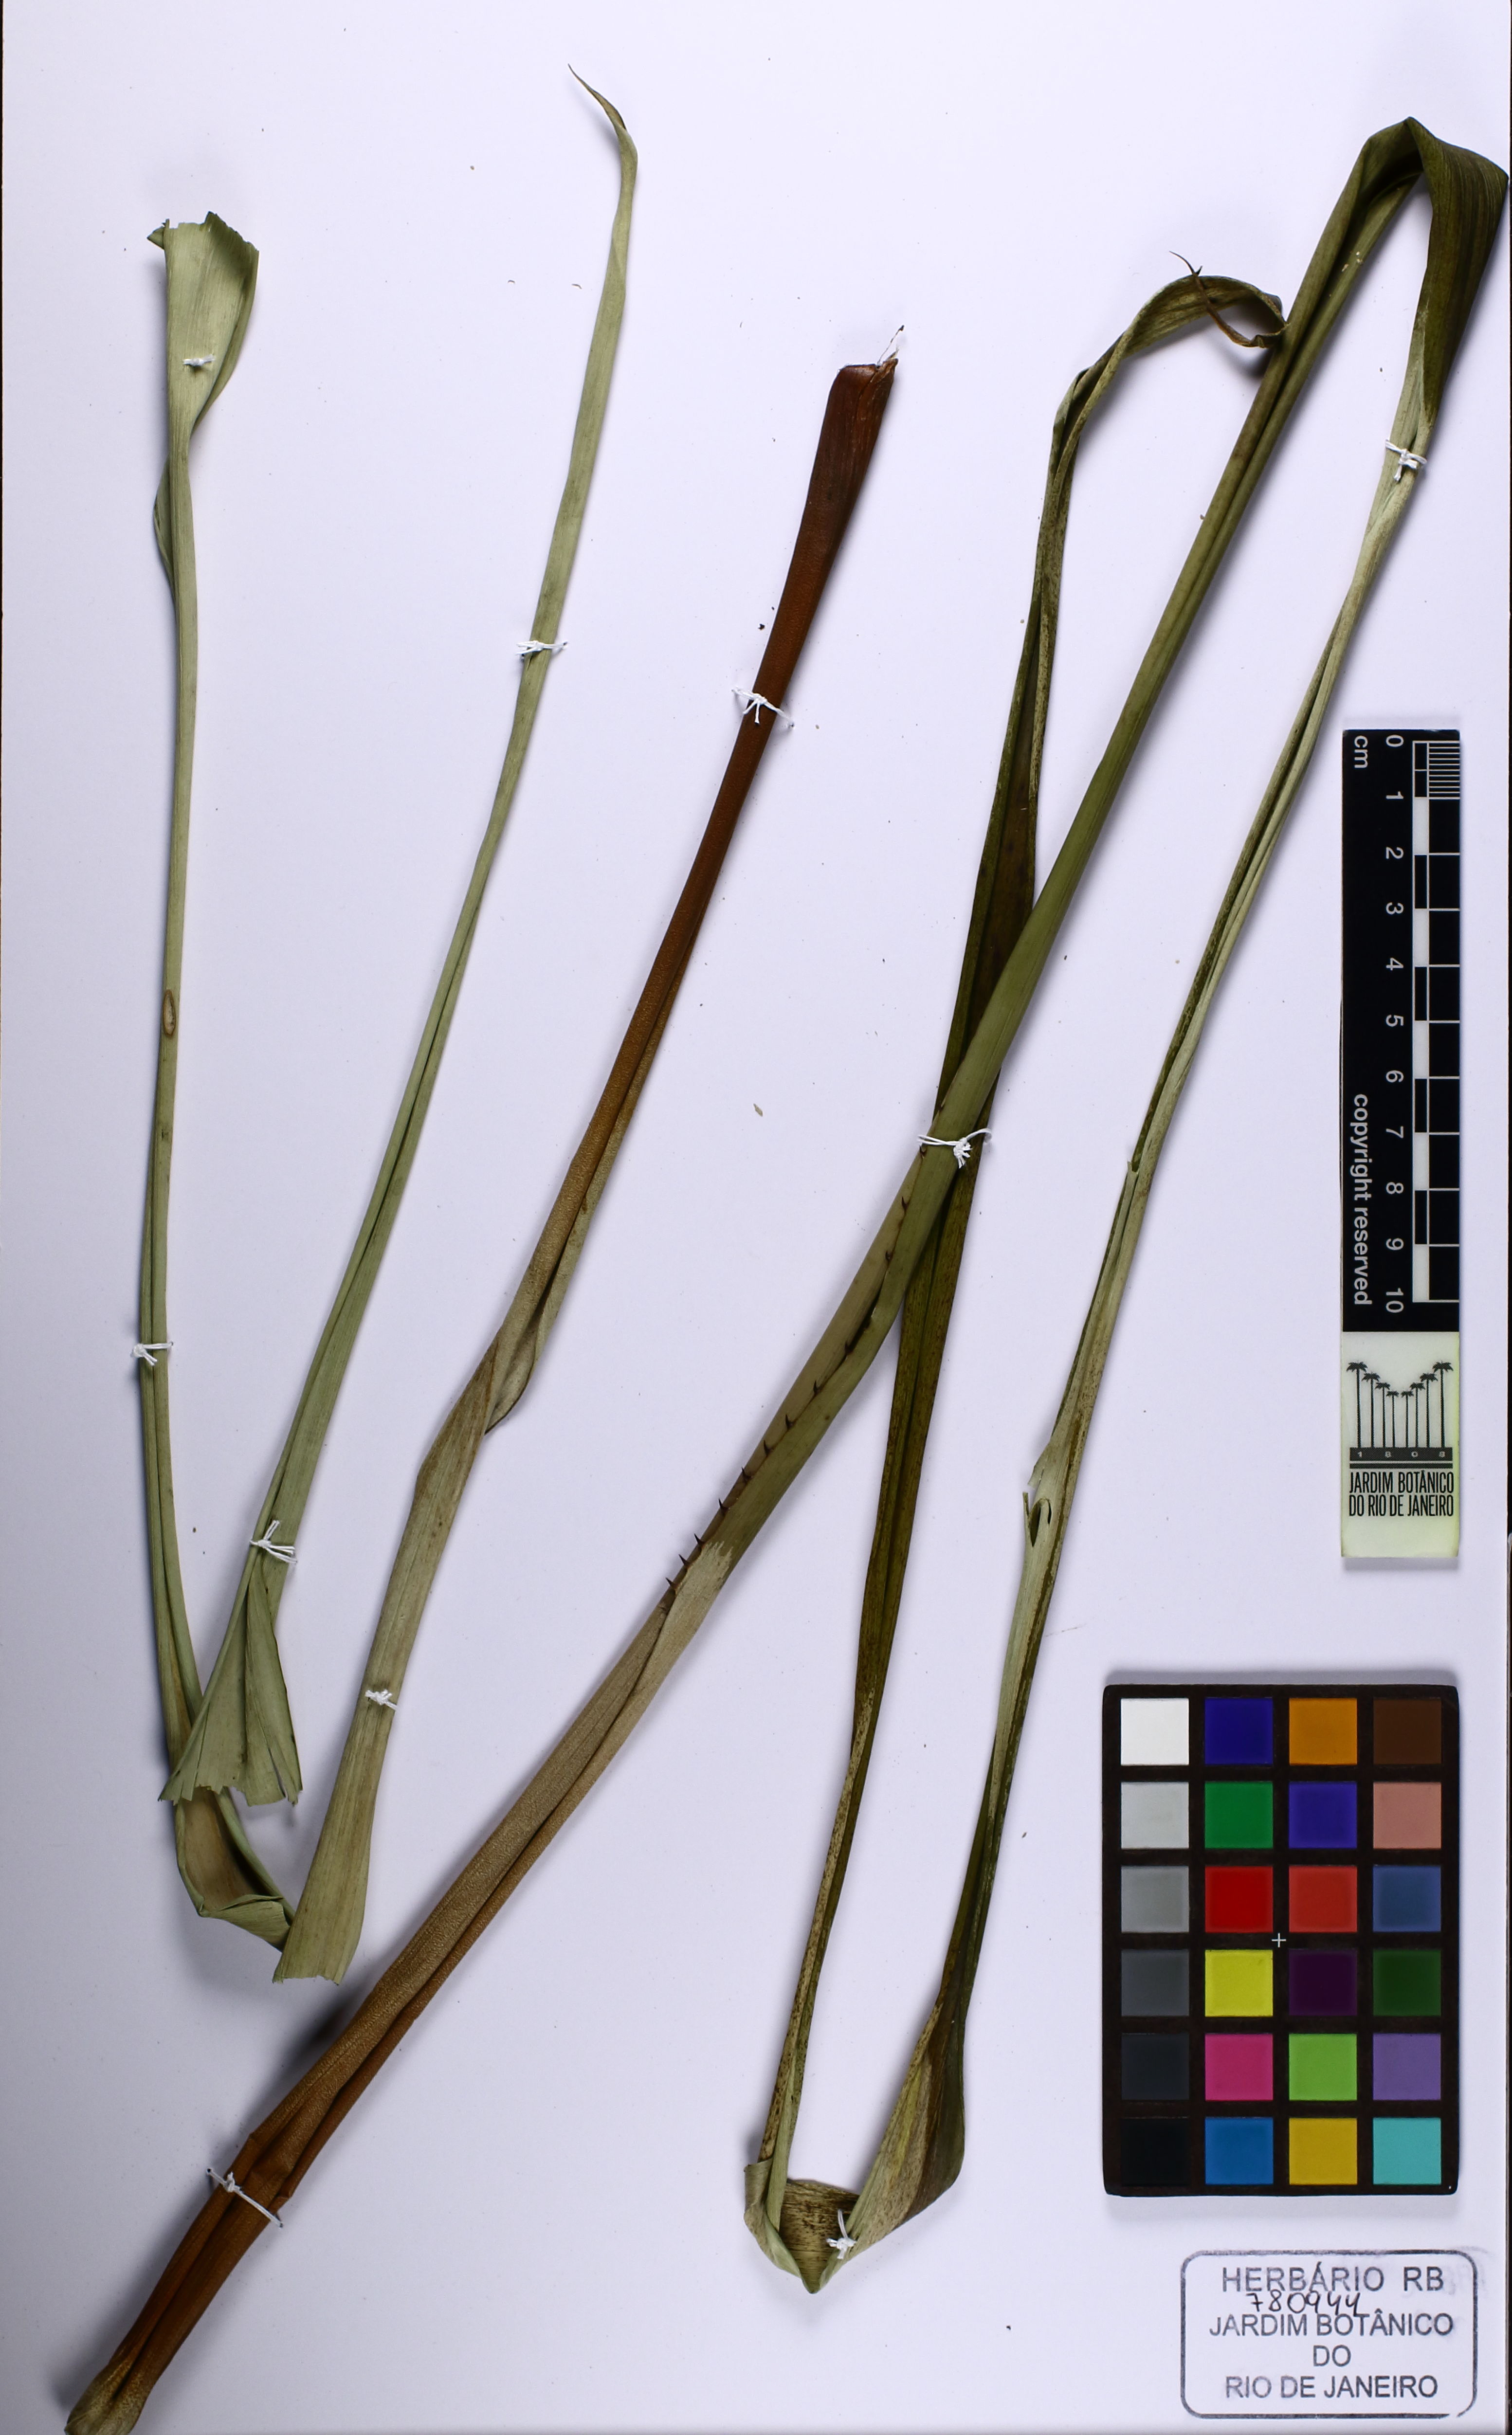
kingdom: Plantae
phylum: Tracheophyta
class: Liliopsida
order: Poales
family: Bromeliaceae
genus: Portea
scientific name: Portea petropolitana
